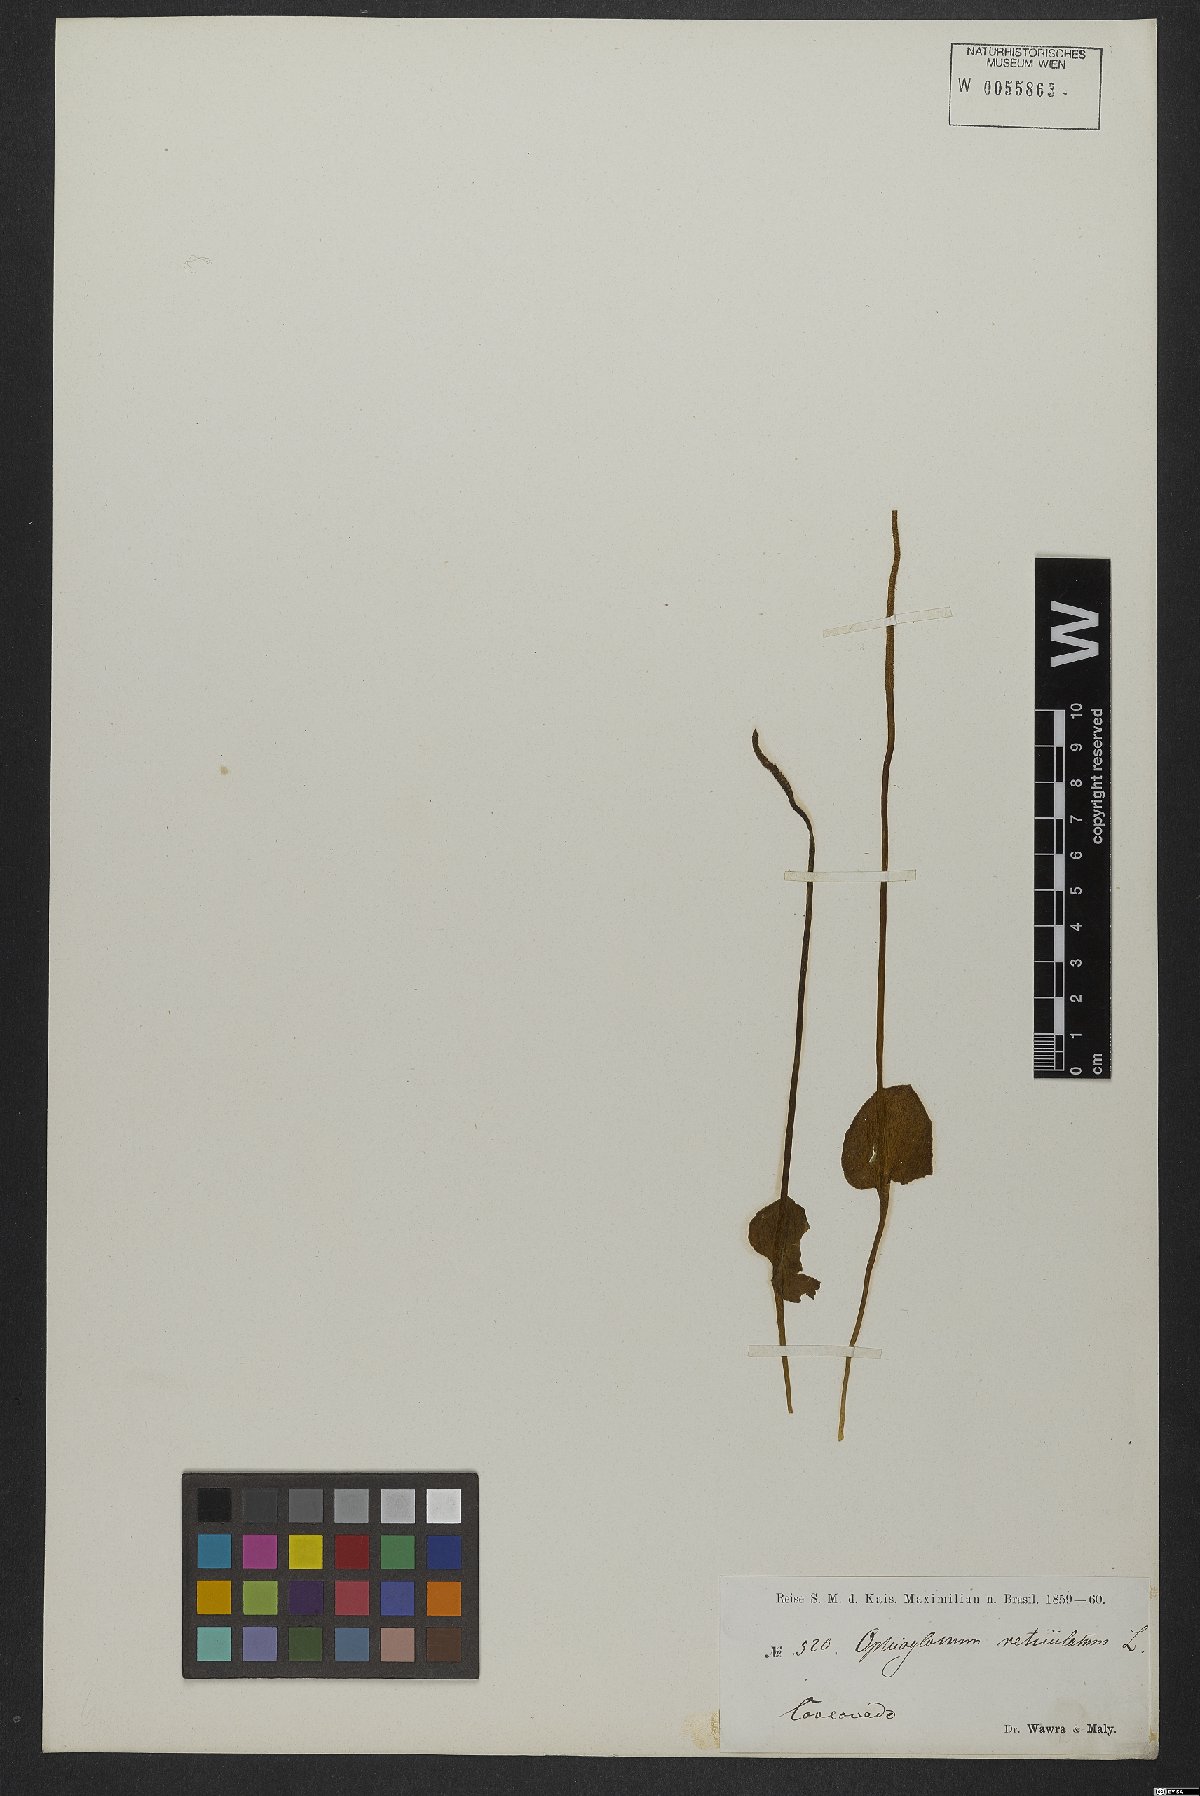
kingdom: Plantae
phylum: Tracheophyta
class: Polypodiopsida
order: Ophioglossales
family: Ophioglossaceae
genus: Ophioglossum
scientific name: Ophioglossum reticulatum
